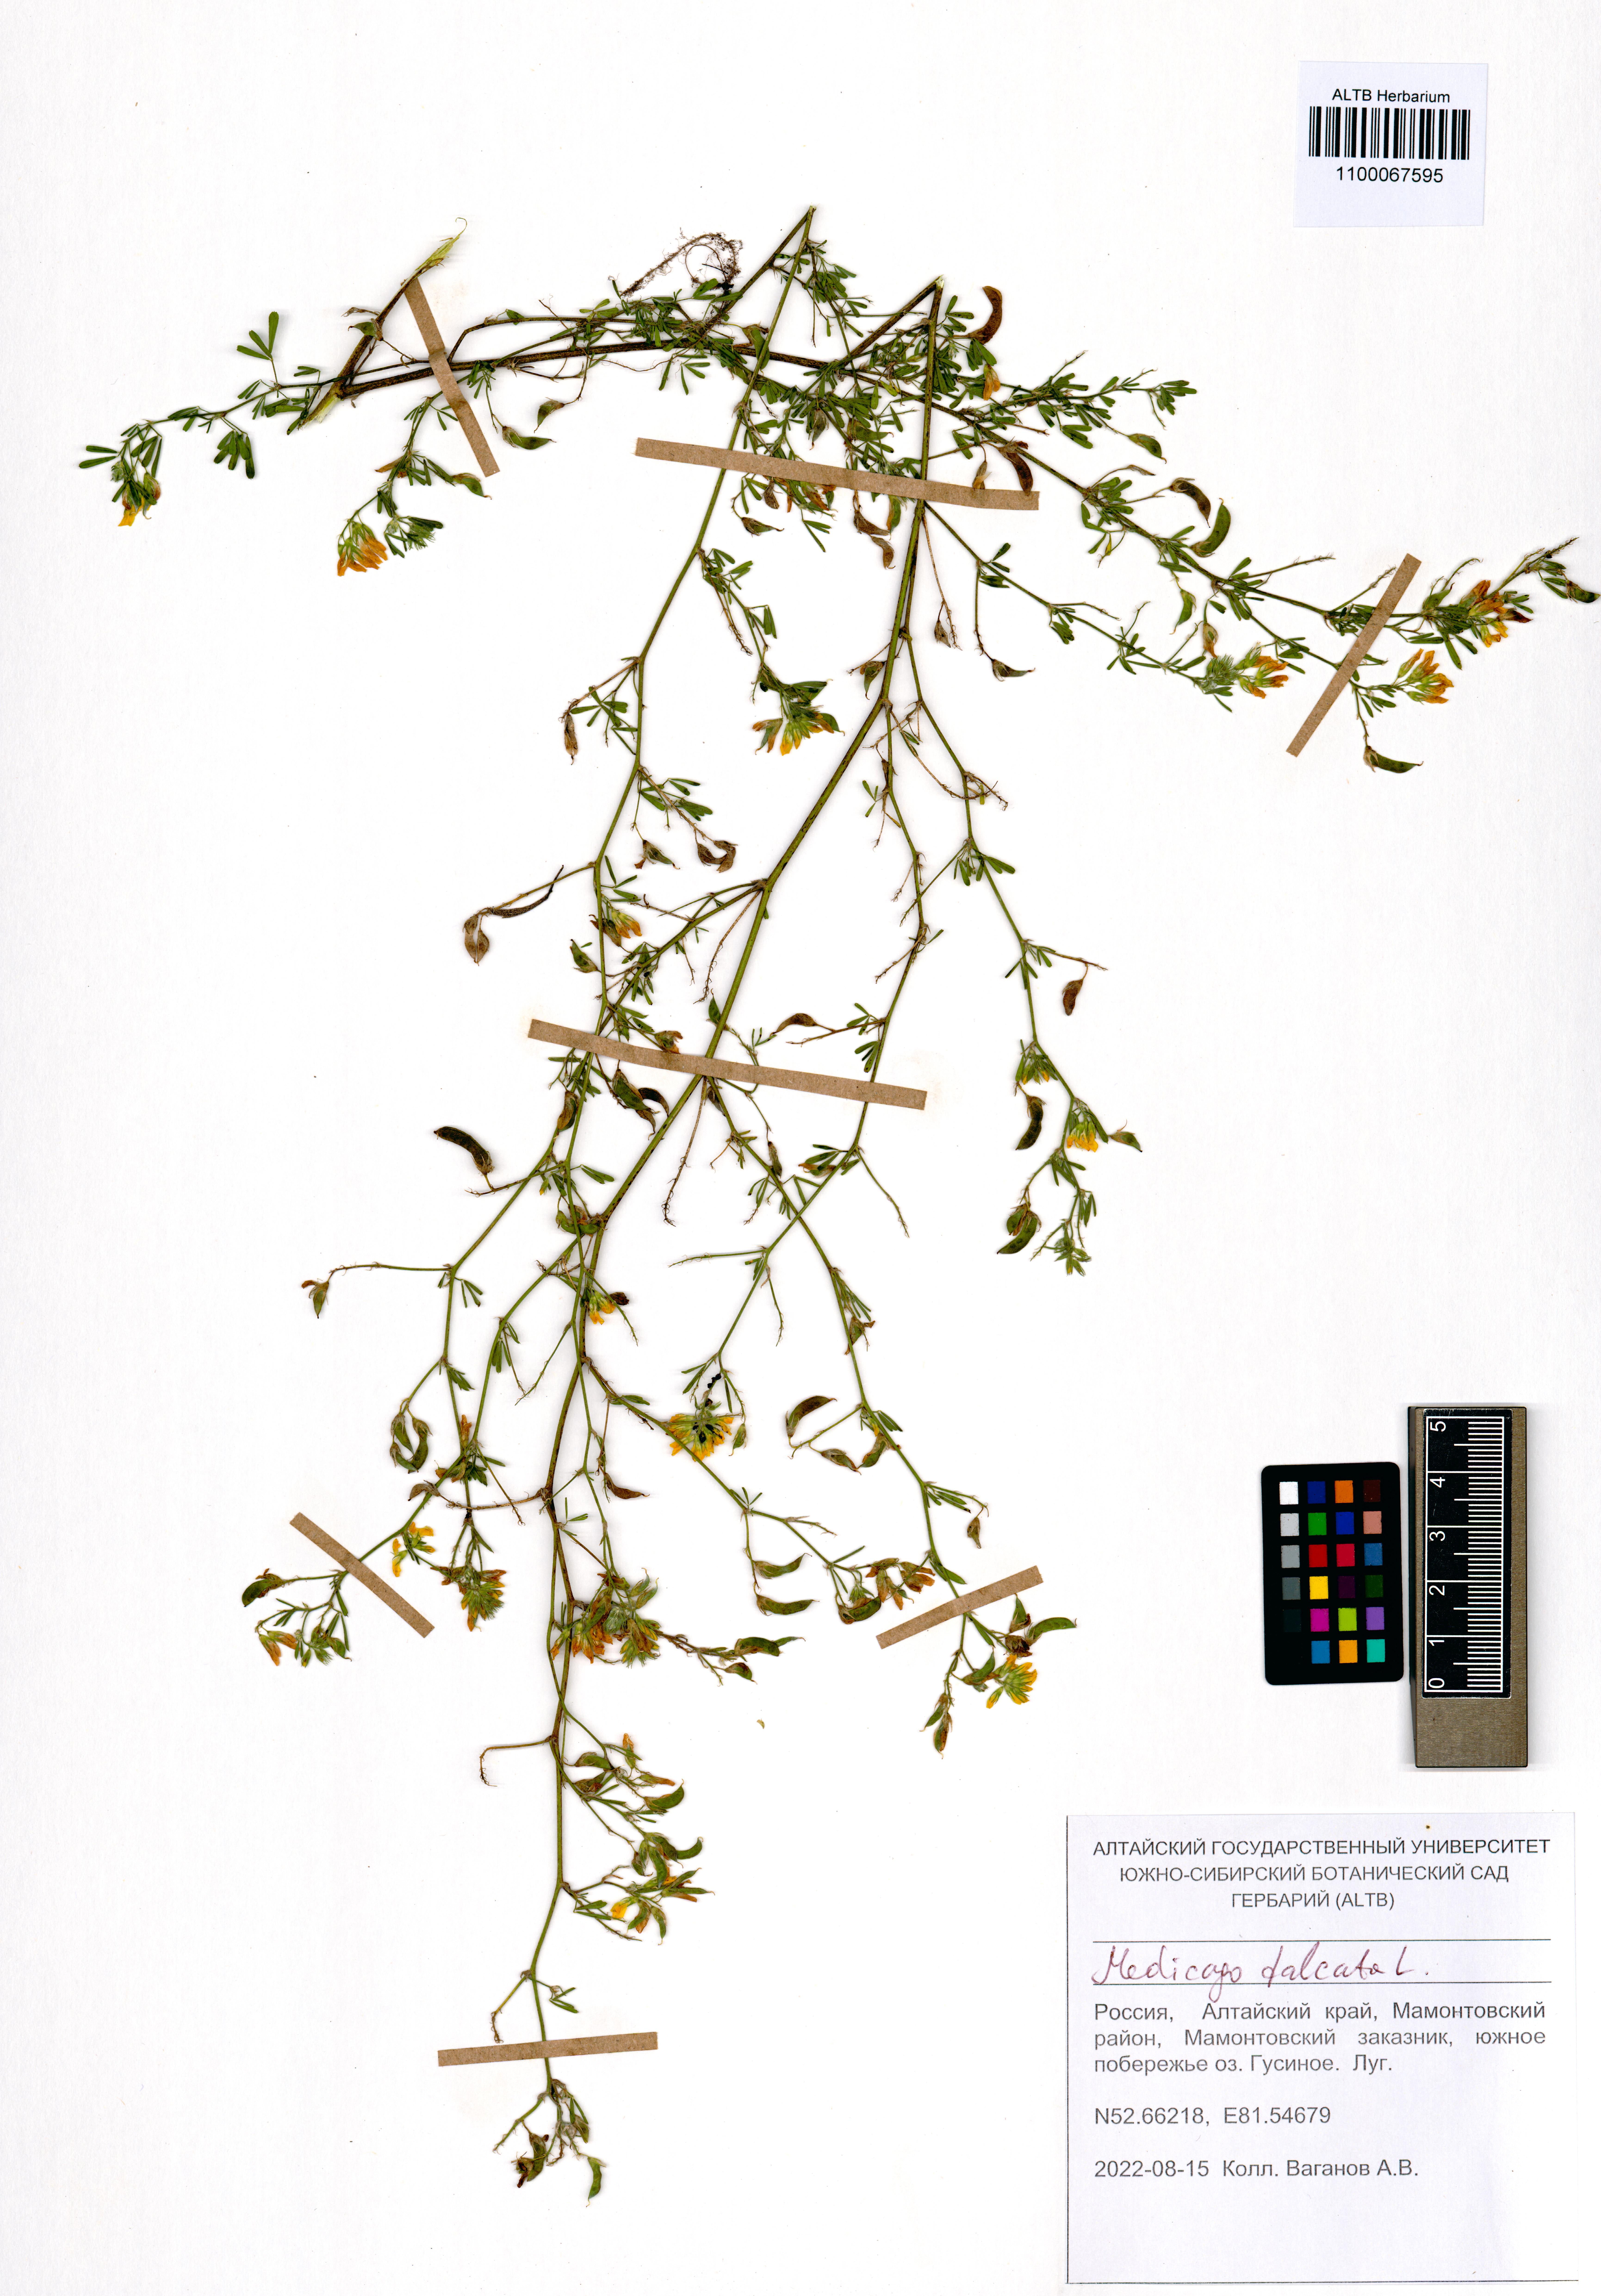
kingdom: Plantae
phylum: Tracheophyta
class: Magnoliopsida
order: Fabales
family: Fabaceae
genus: Medicago
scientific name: Medicago falcata
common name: Sickle medick
